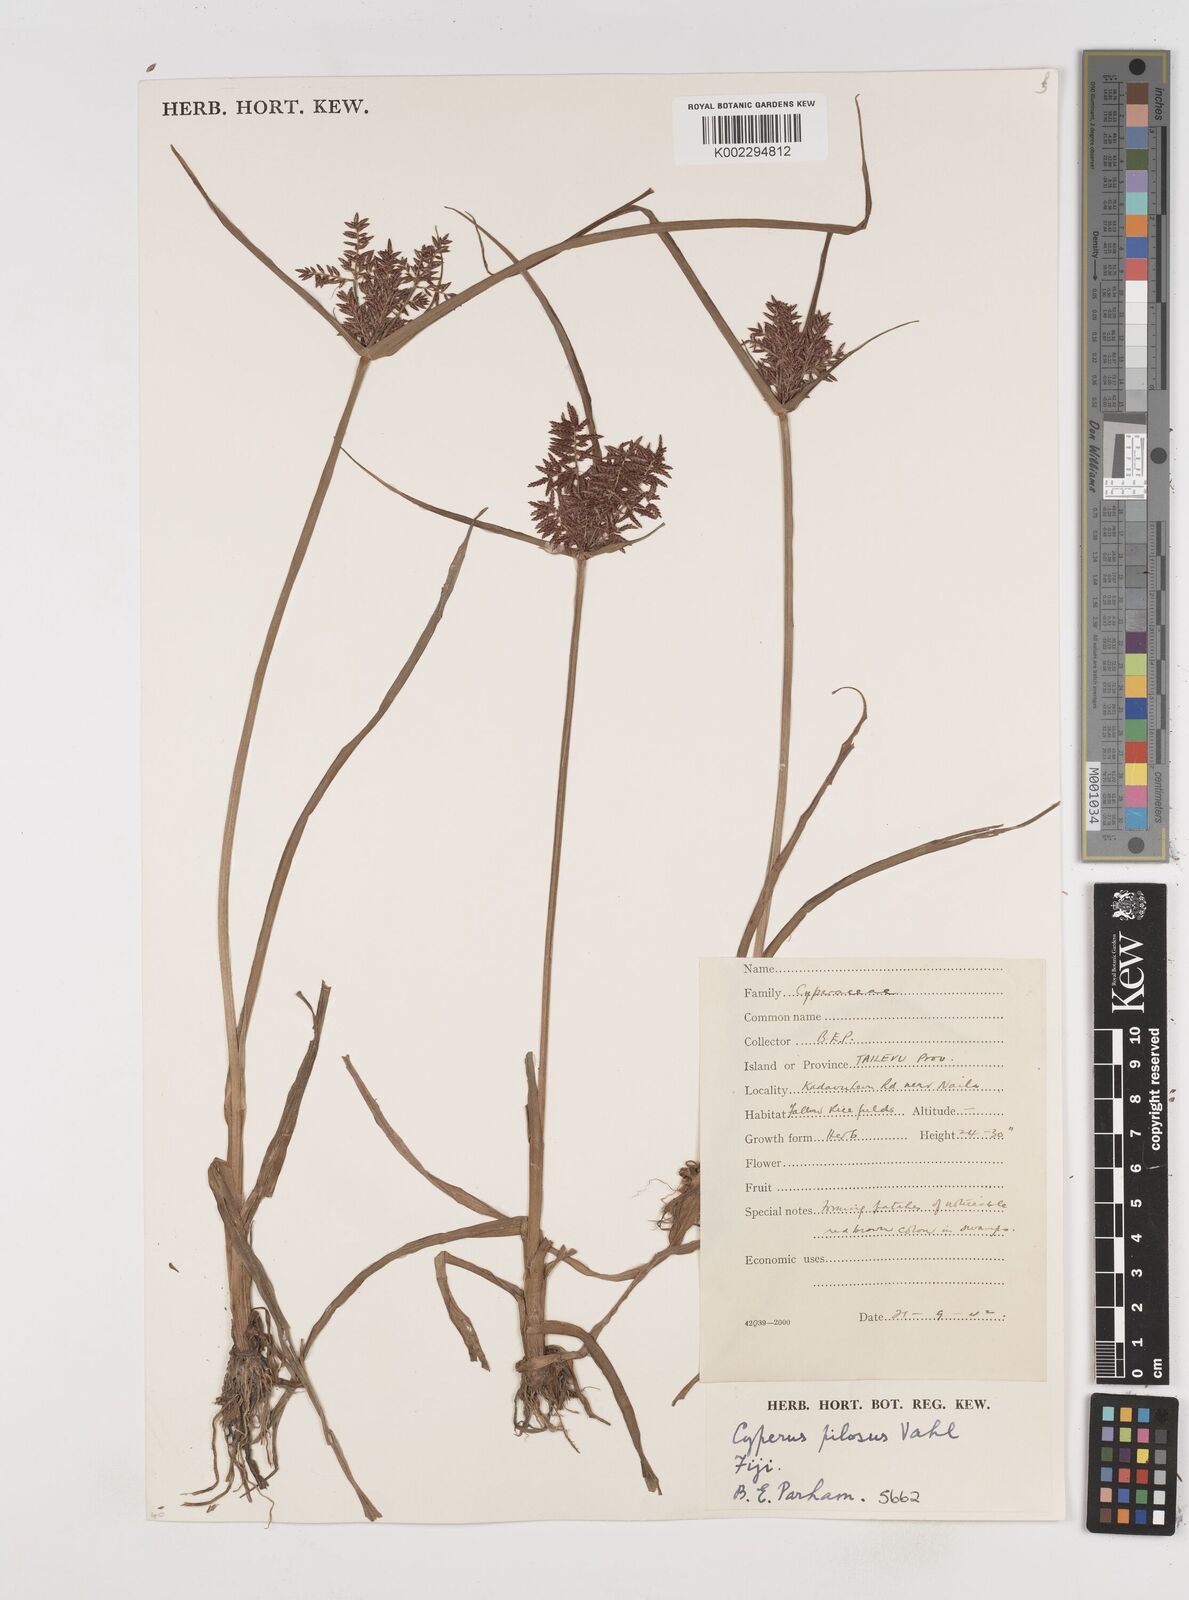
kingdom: Plantae
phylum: Tracheophyta
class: Liliopsida
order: Poales
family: Cyperaceae
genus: Cyperus
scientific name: Cyperus pilosus
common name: Fuzzy flatsedge
